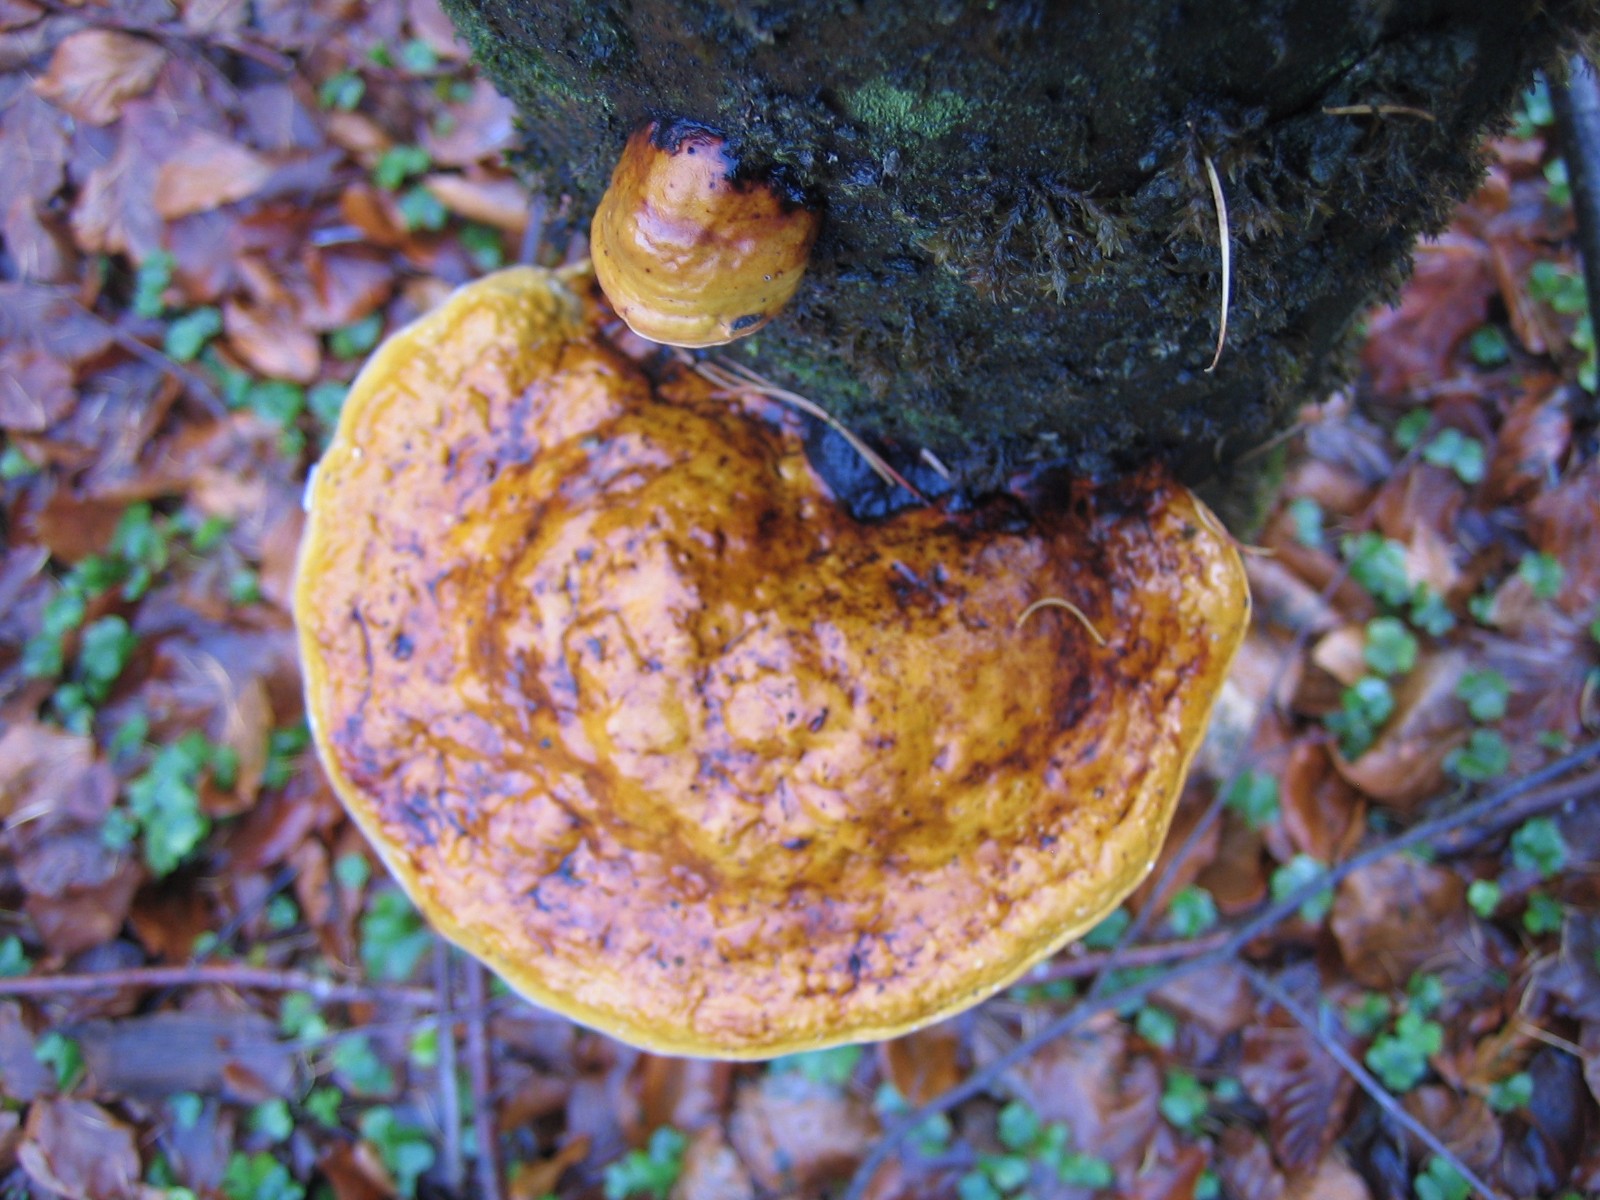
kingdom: Fungi
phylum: Basidiomycota
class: Agaricomycetes
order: Polyporales
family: Fomitopsidaceae
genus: Fomitopsis
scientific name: Fomitopsis pinicola
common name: randbæltet hovporesvamp
